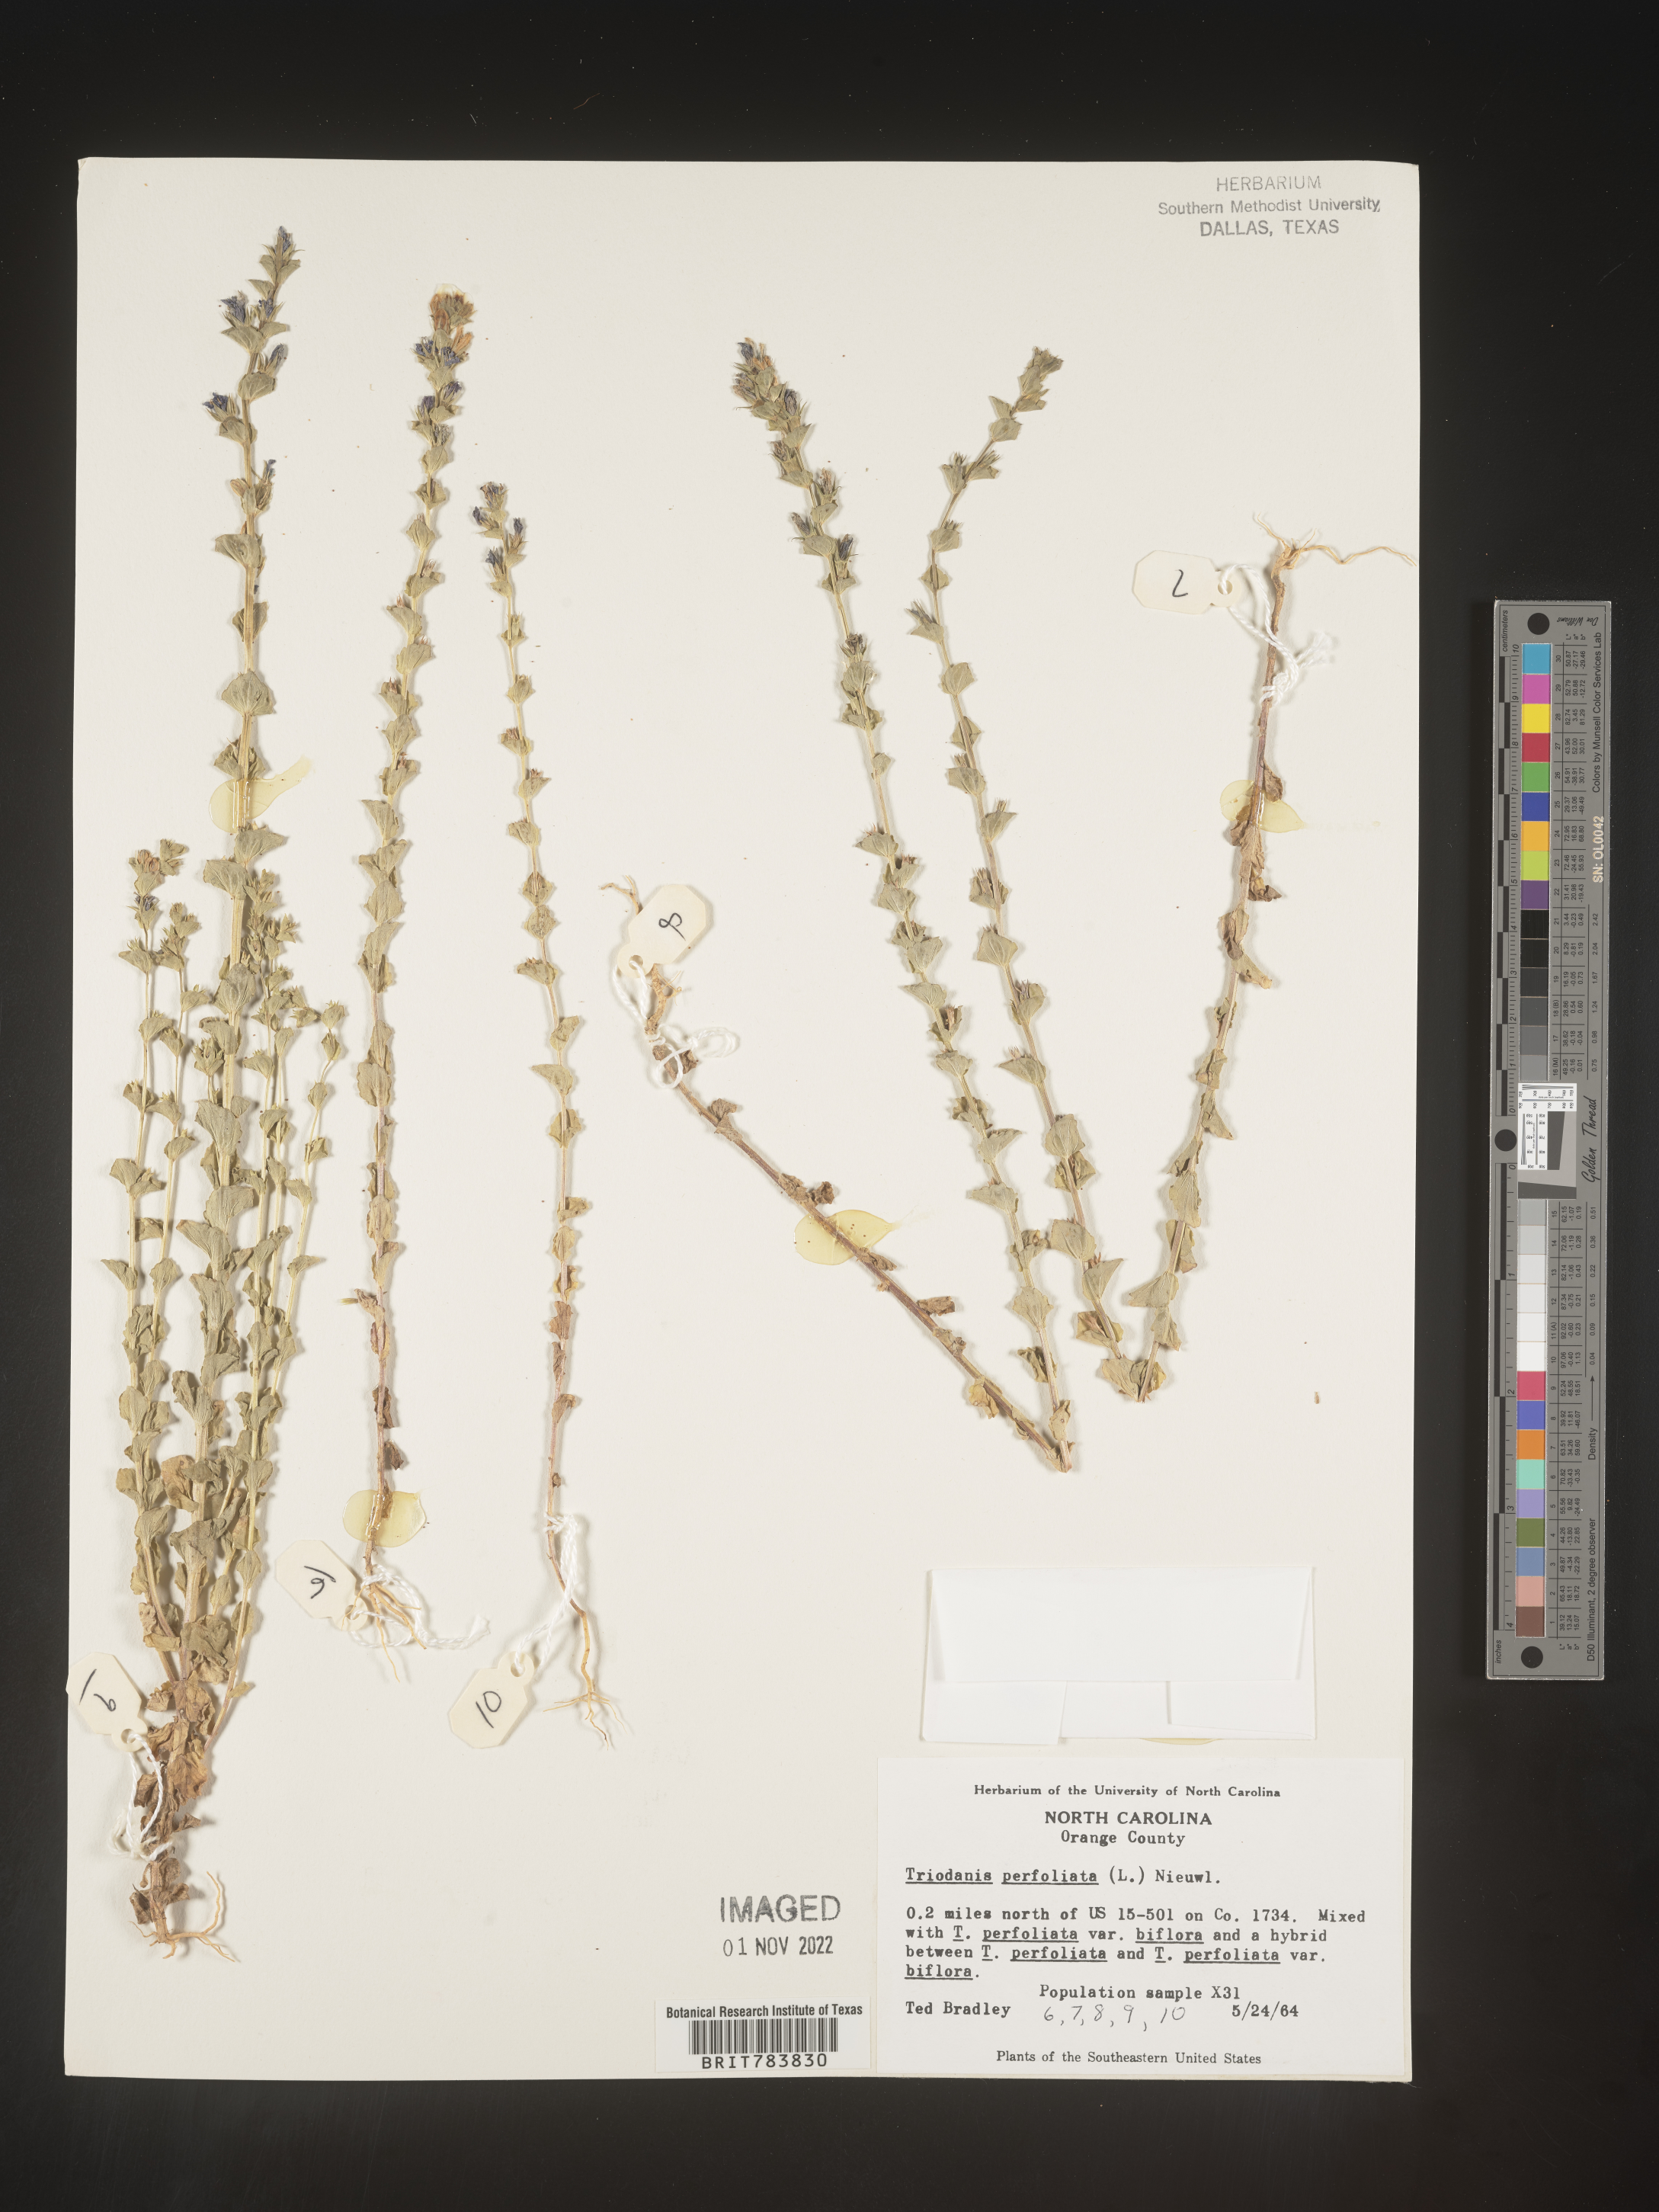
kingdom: Plantae
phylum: Tracheophyta
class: Magnoliopsida
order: Asterales
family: Campanulaceae
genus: Triodanis
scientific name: Triodanis perfoliata
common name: Clasping venus' looking-glass
